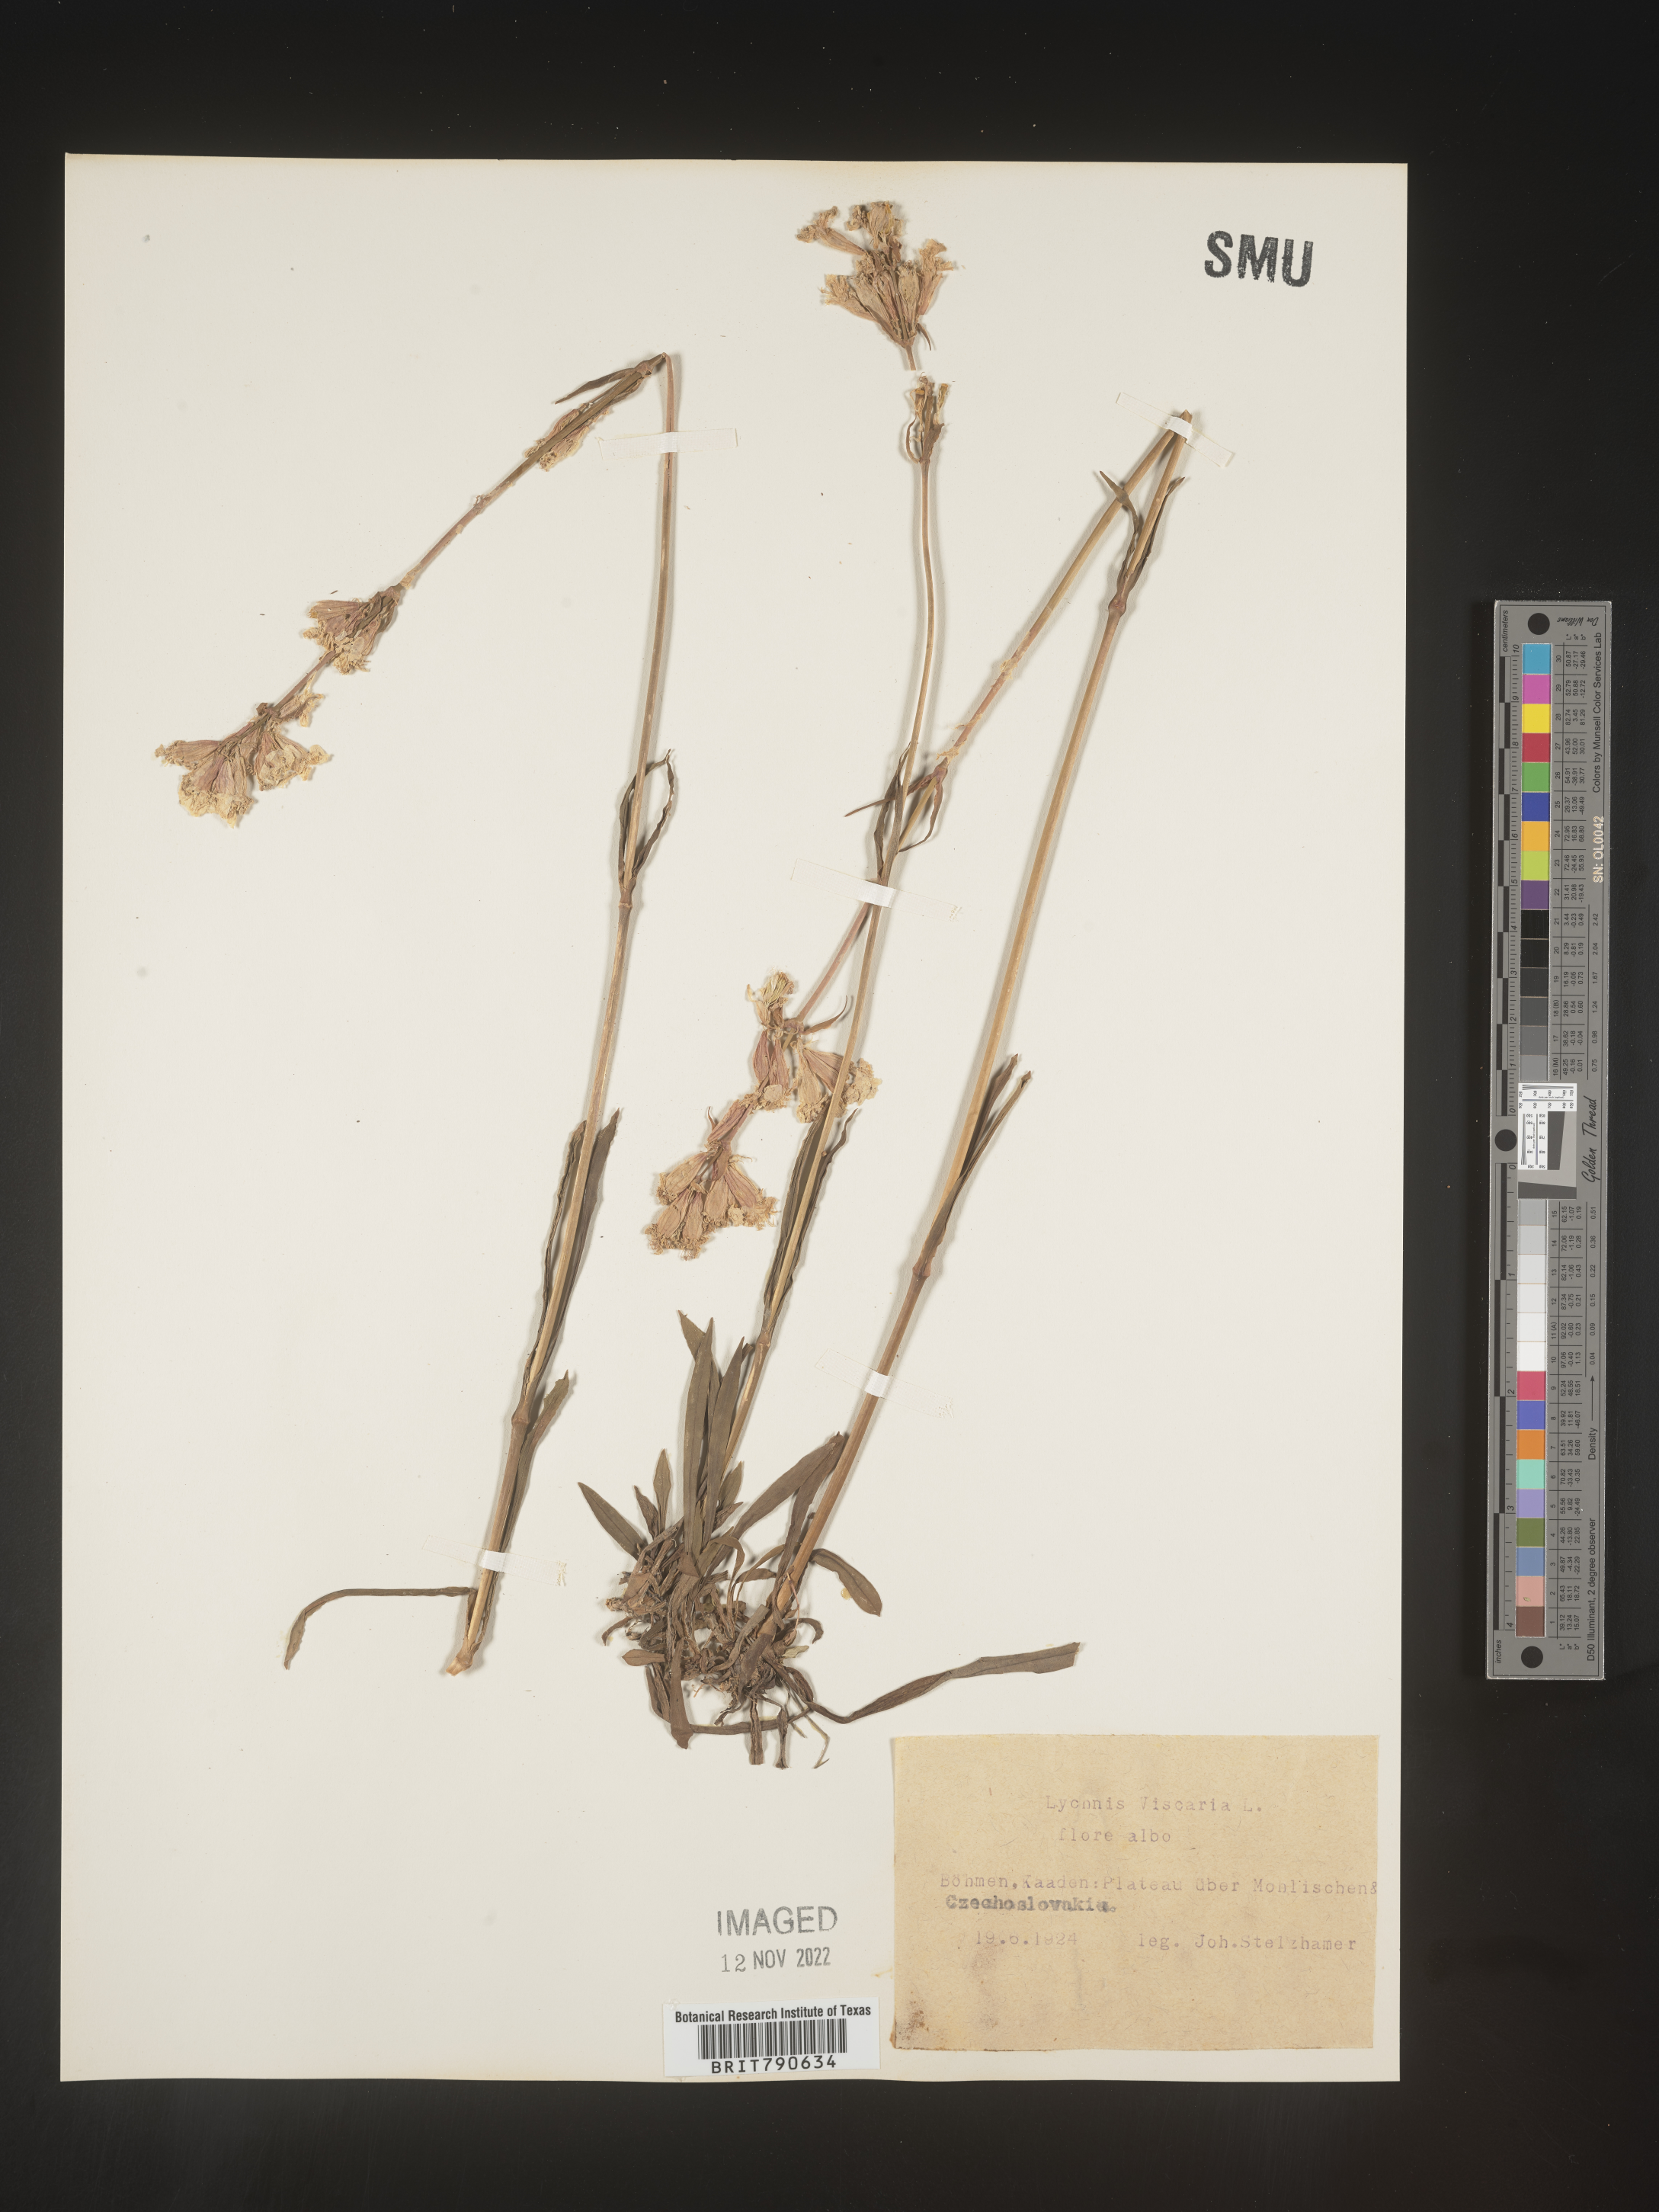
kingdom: Plantae
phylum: Tracheophyta
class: Magnoliopsida
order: Caryophyllales
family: Caryophyllaceae
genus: Silene
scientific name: Silene
